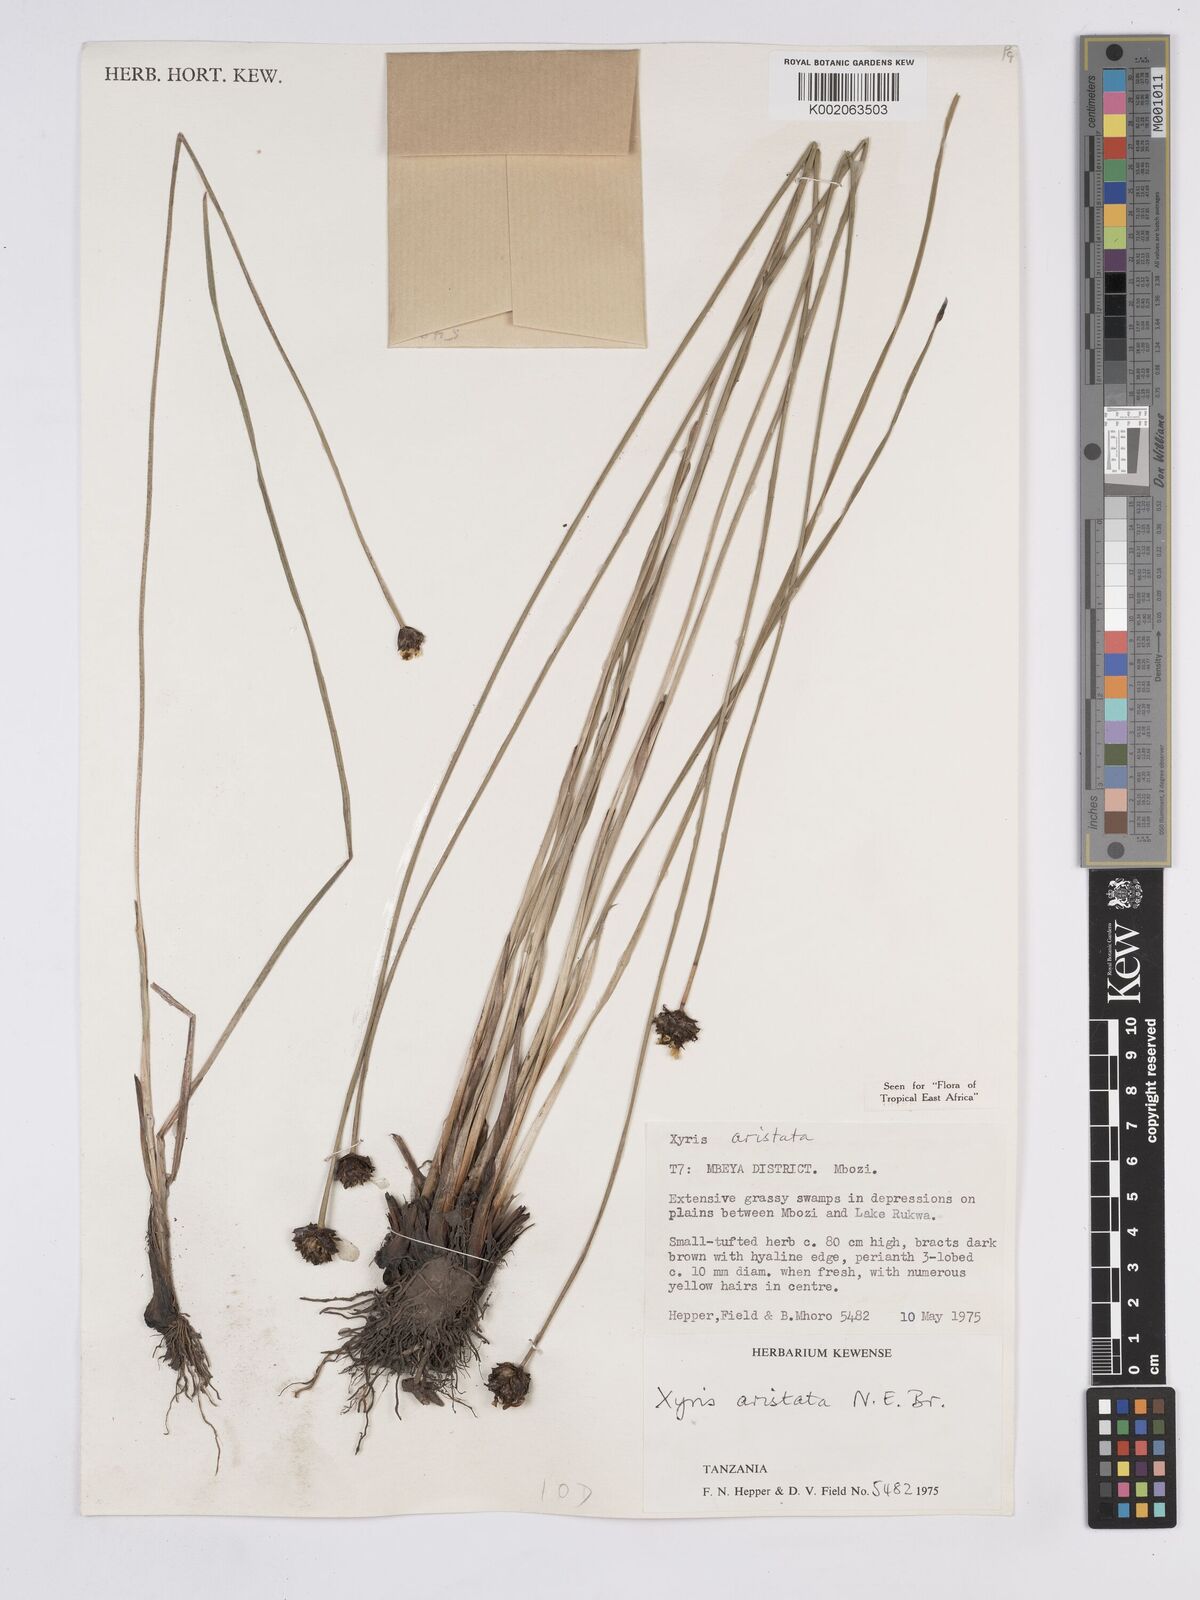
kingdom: Plantae
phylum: Tracheophyta
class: Liliopsida
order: Poales
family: Xyridaceae
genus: Xyris
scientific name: Xyris aristata
